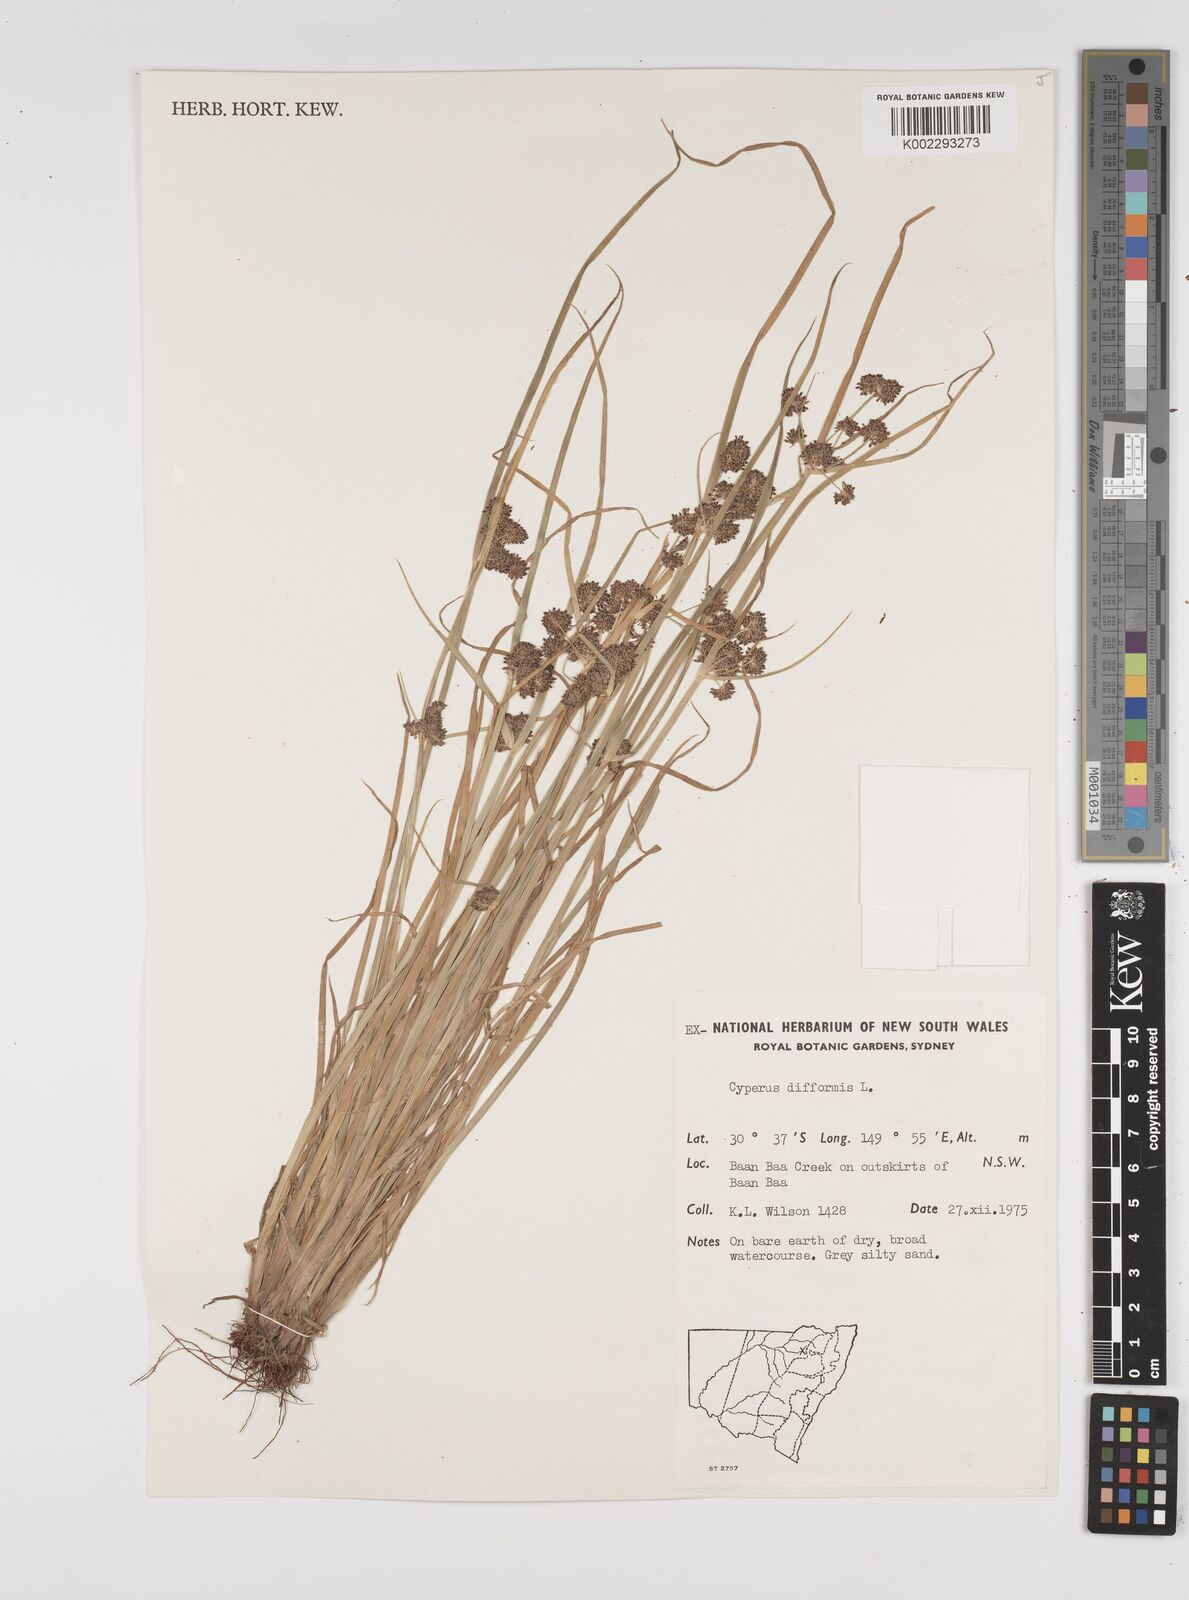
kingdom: Plantae
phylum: Tracheophyta
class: Liliopsida
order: Poales
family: Cyperaceae
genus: Cyperus
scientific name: Cyperus difformis
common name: Variable flatsedge
